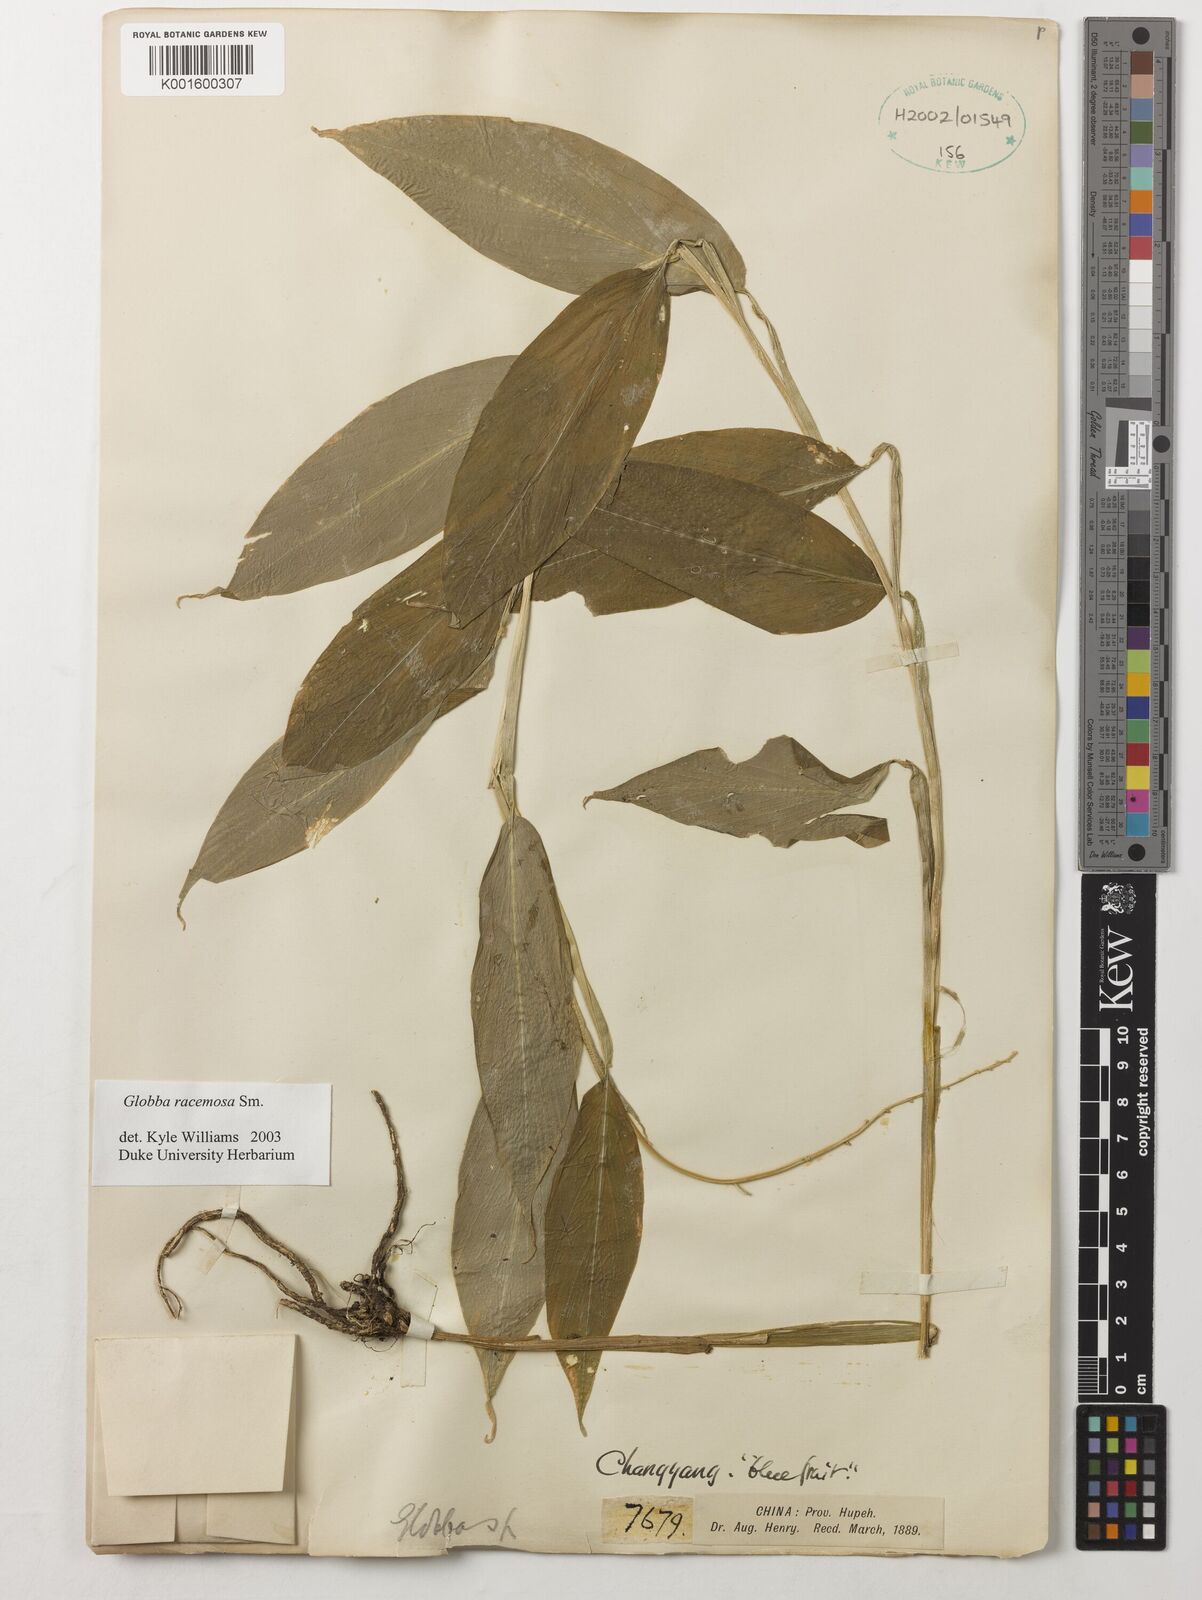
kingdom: Plantae
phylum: Tracheophyta
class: Liliopsida
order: Zingiberales
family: Zingiberaceae
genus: Globba
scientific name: Globba racemosa
